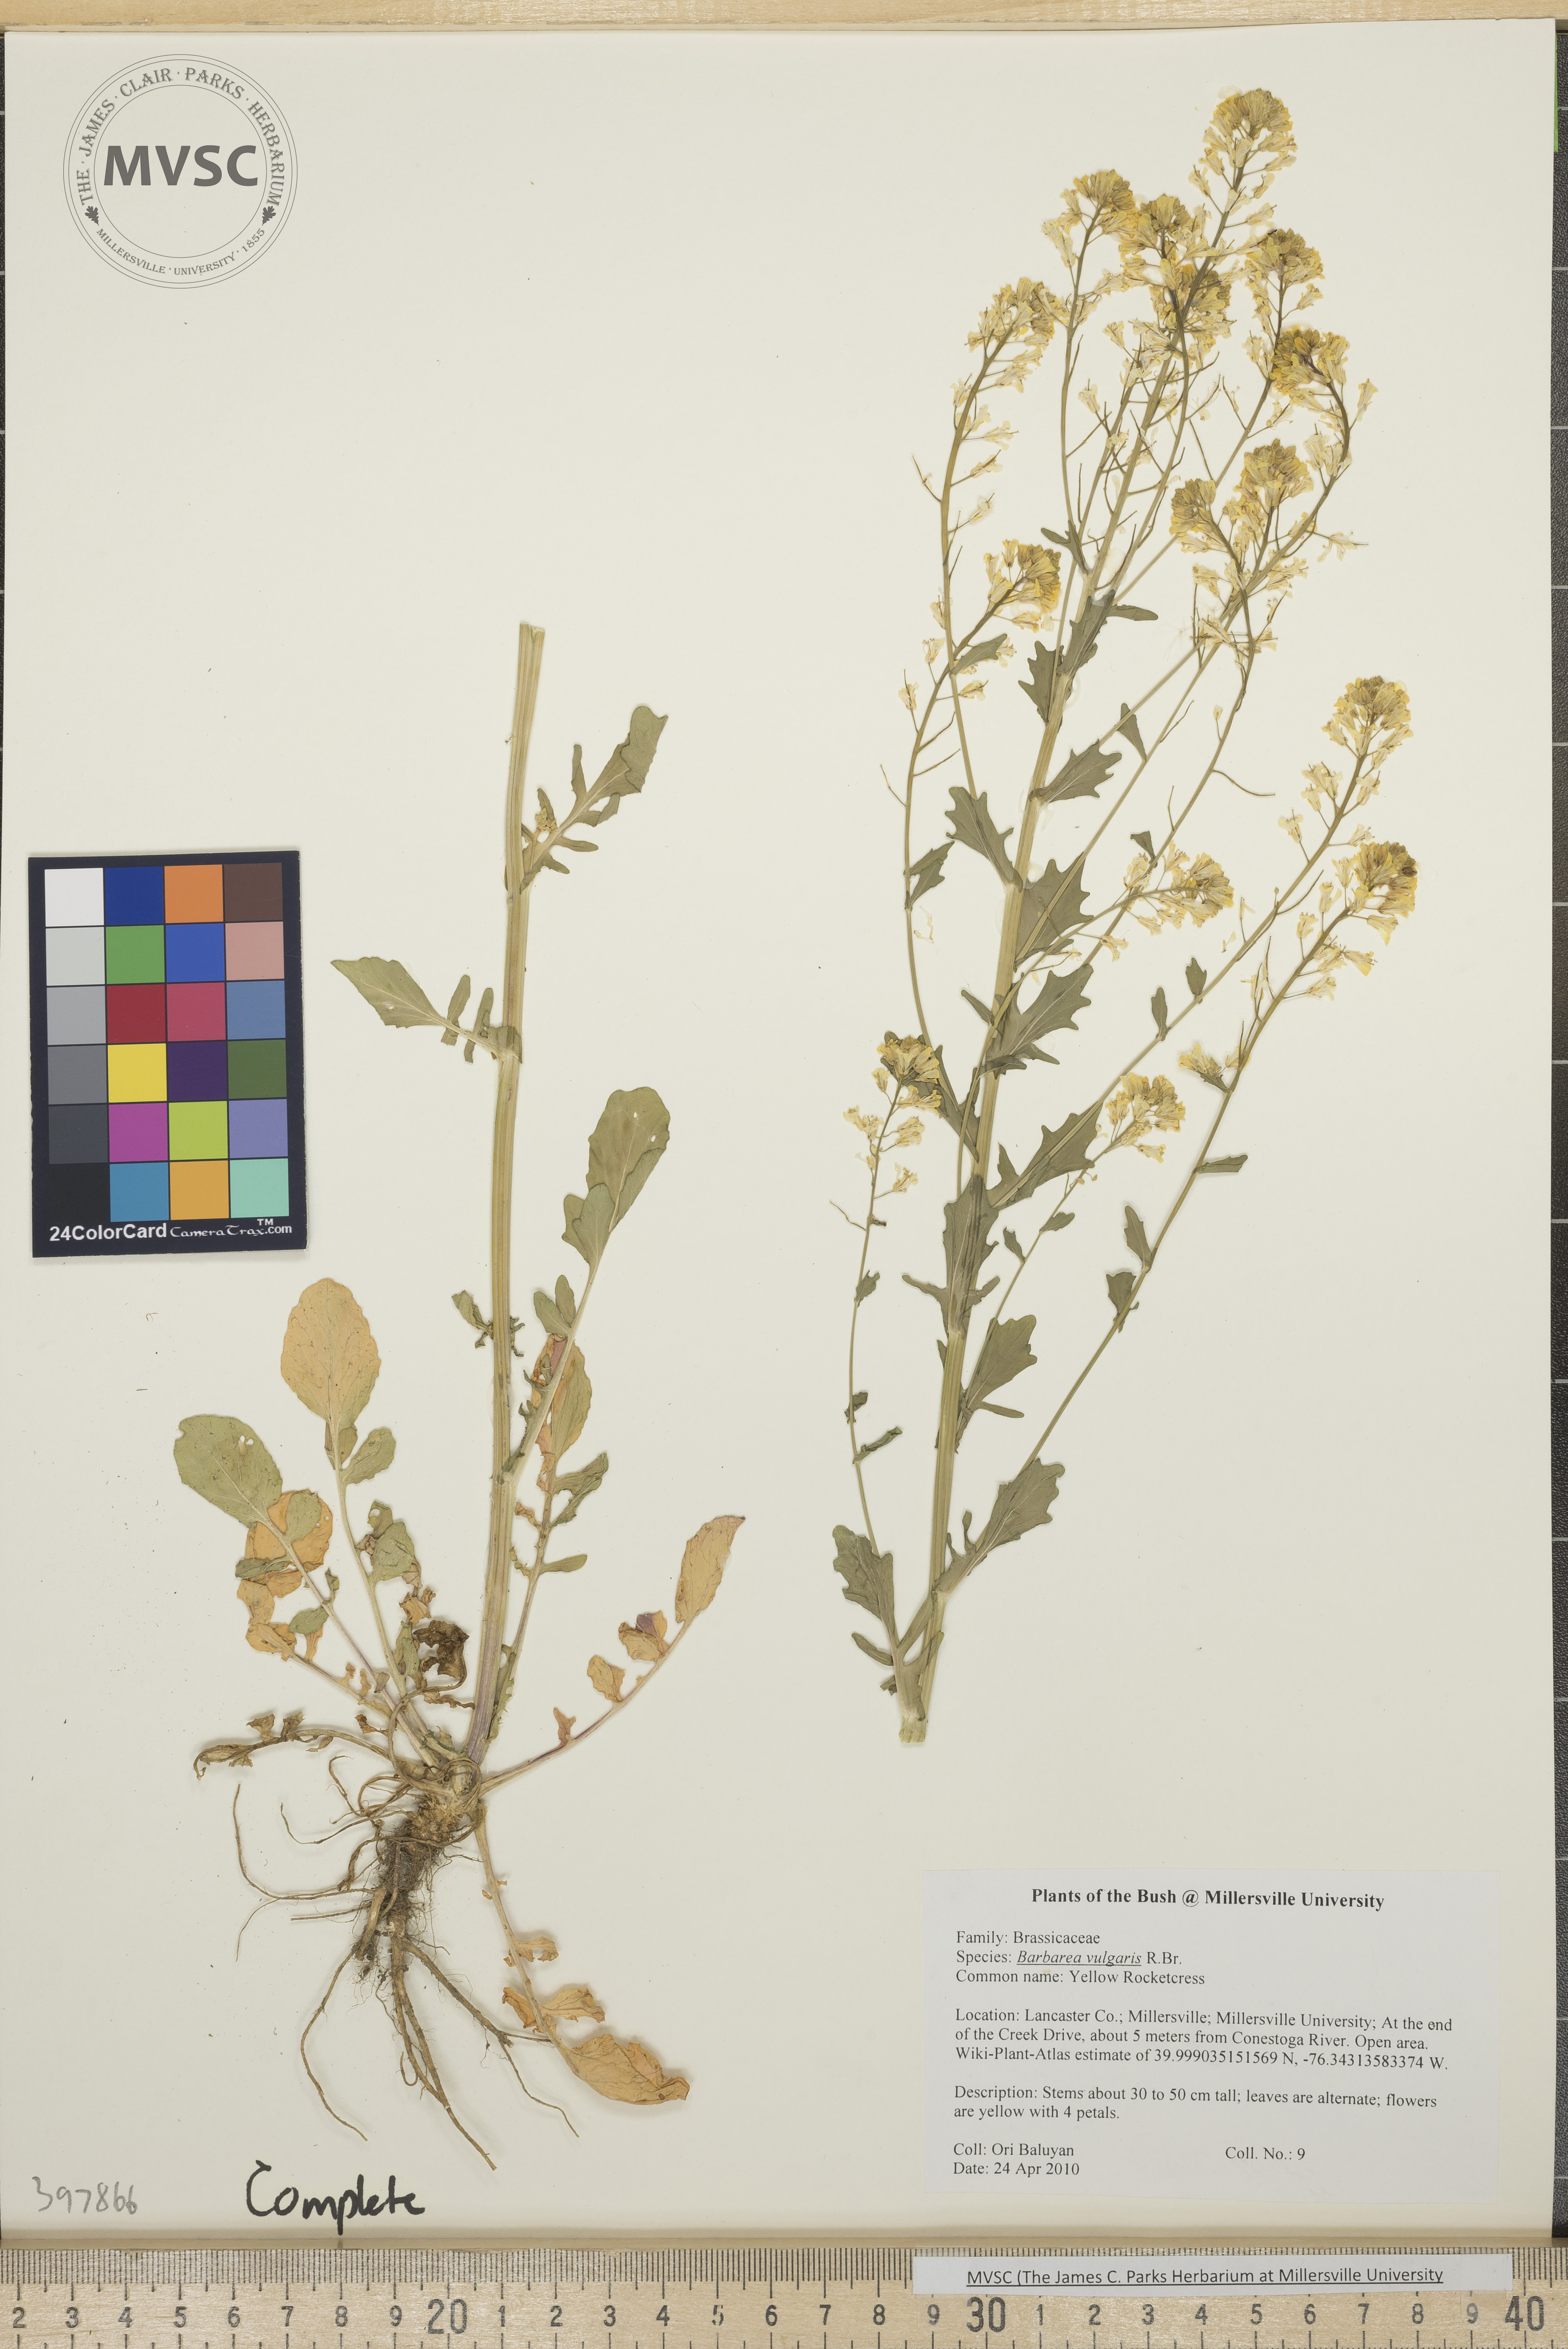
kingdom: Plantae
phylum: Tracheophyta
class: Magnoliopsida
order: Brassicales
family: Brassicaceae
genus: Barbarea
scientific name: Barbarea vulgaris
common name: Wintercress
